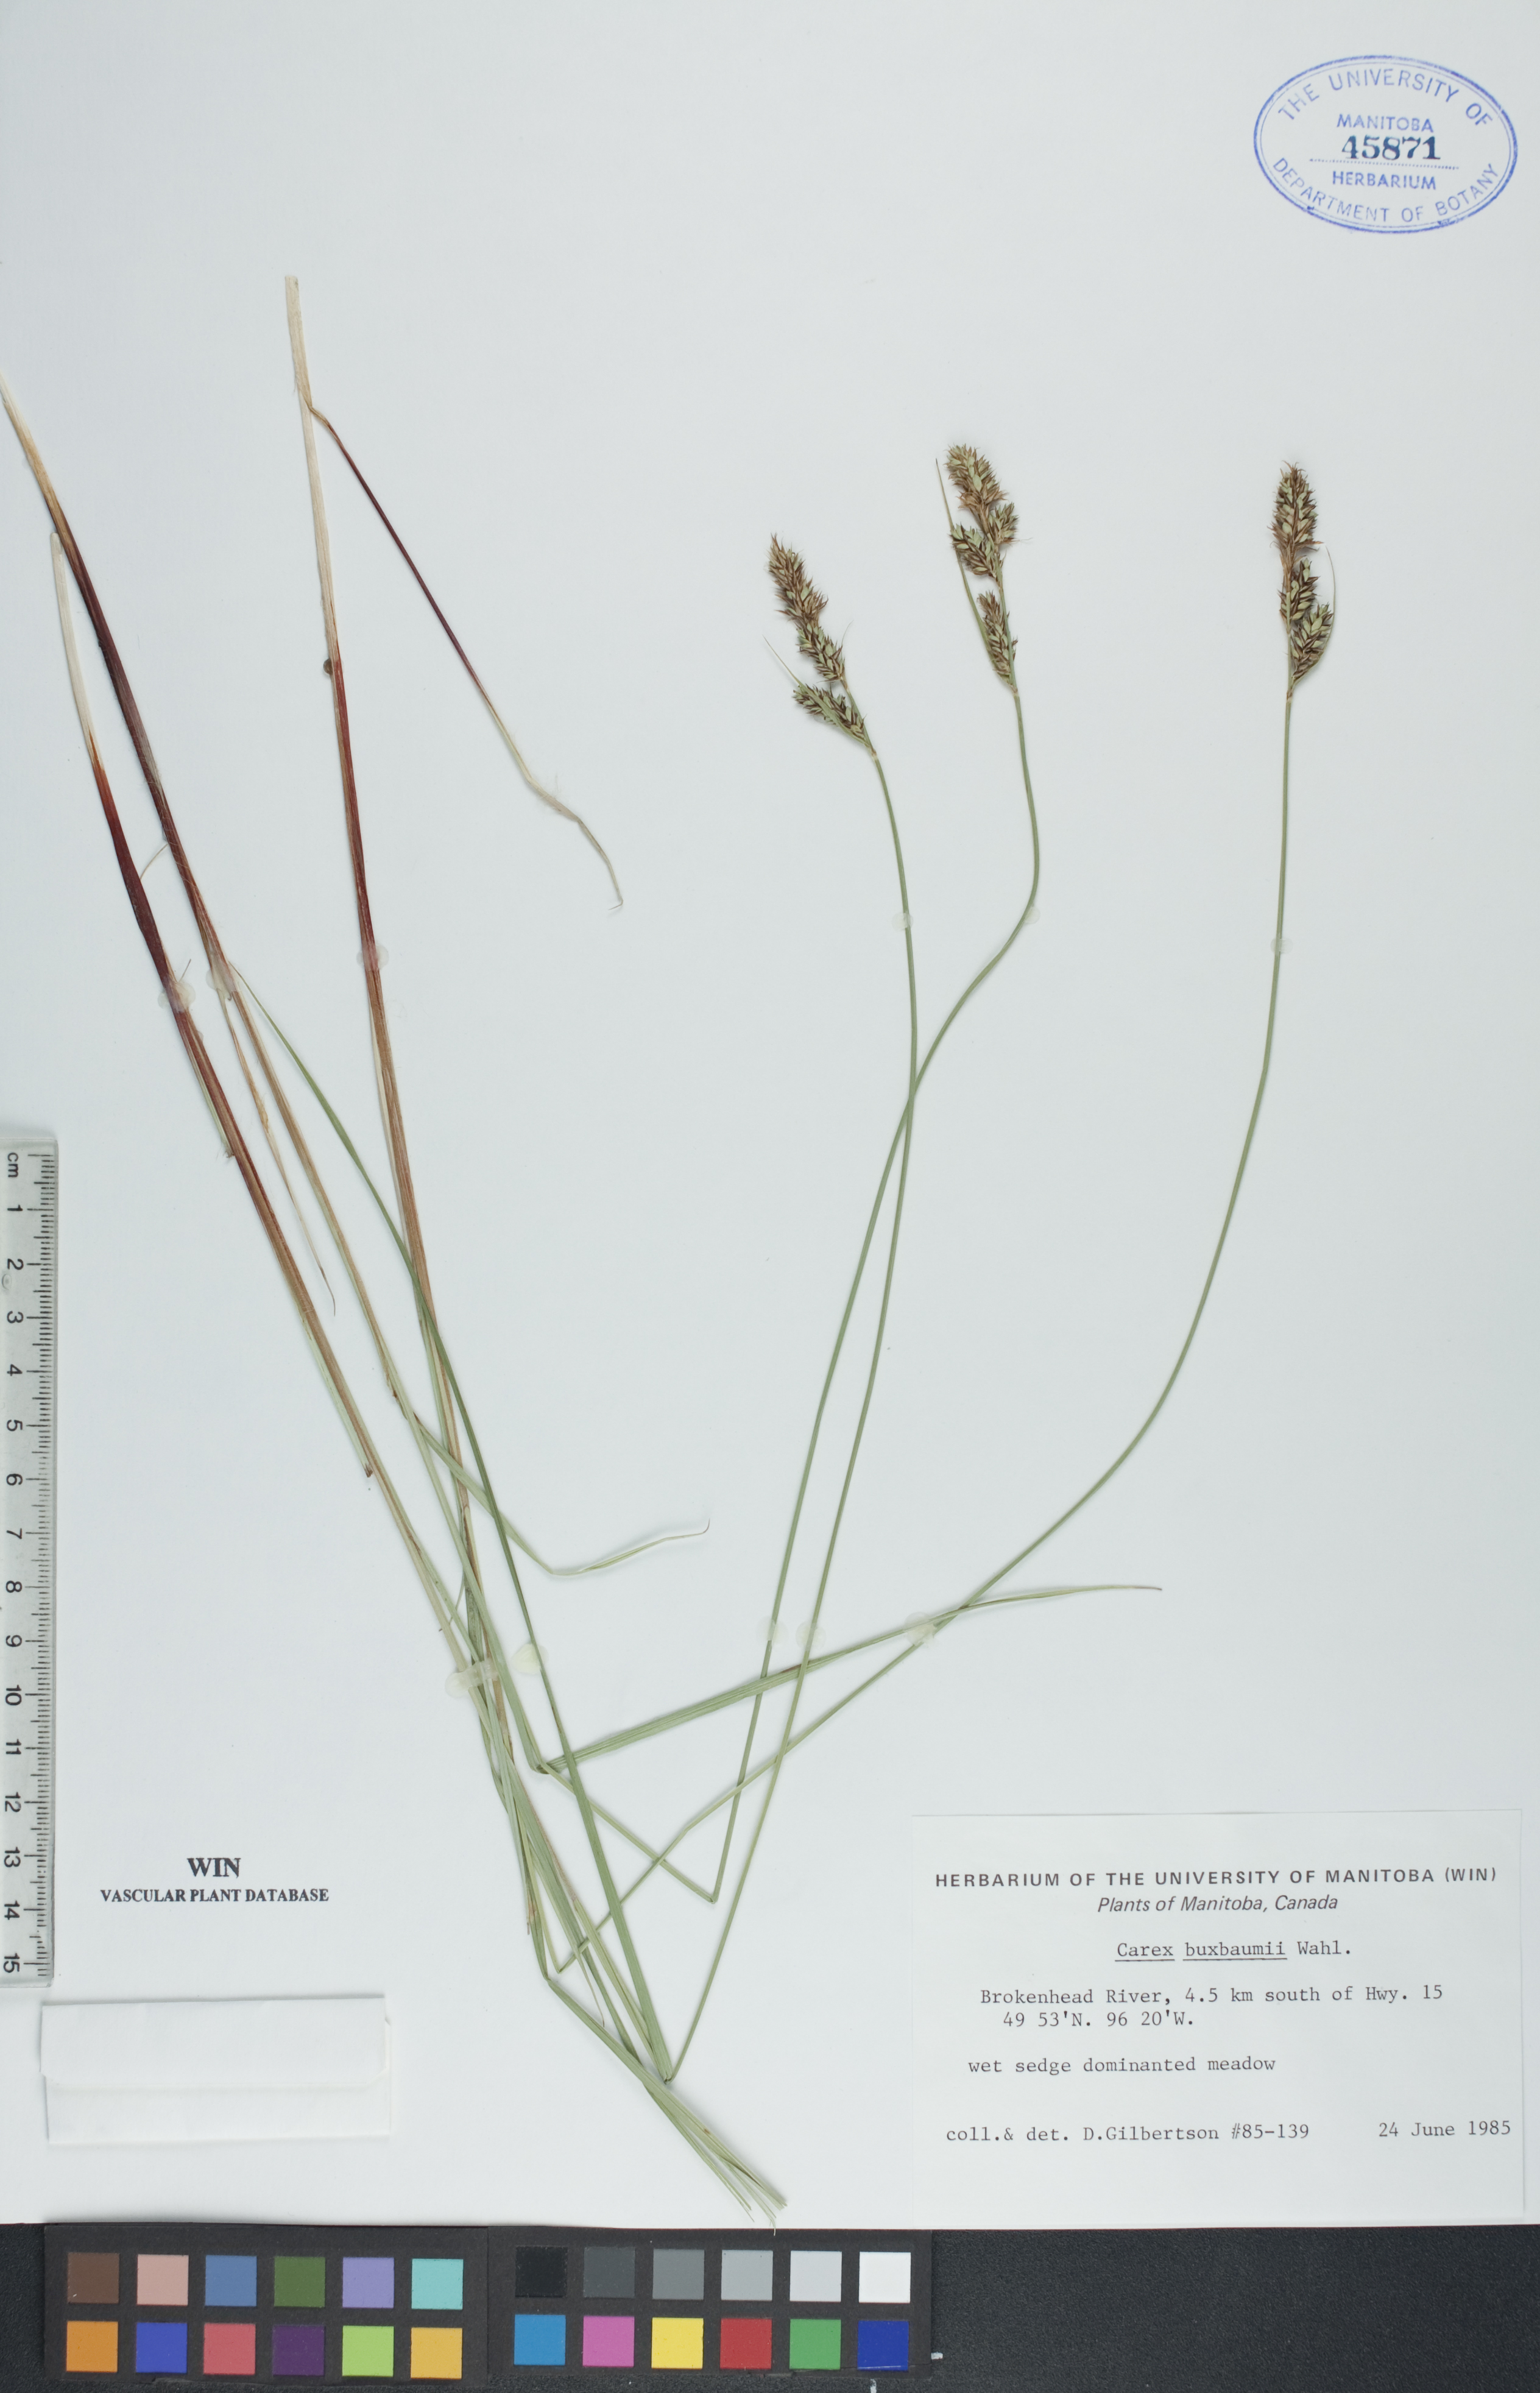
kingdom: Plantae
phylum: Tracheophyta
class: Liliopsida
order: Poales
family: Cyperaceae
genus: Carex
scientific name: Carex buxbaumii
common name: Club sedge
